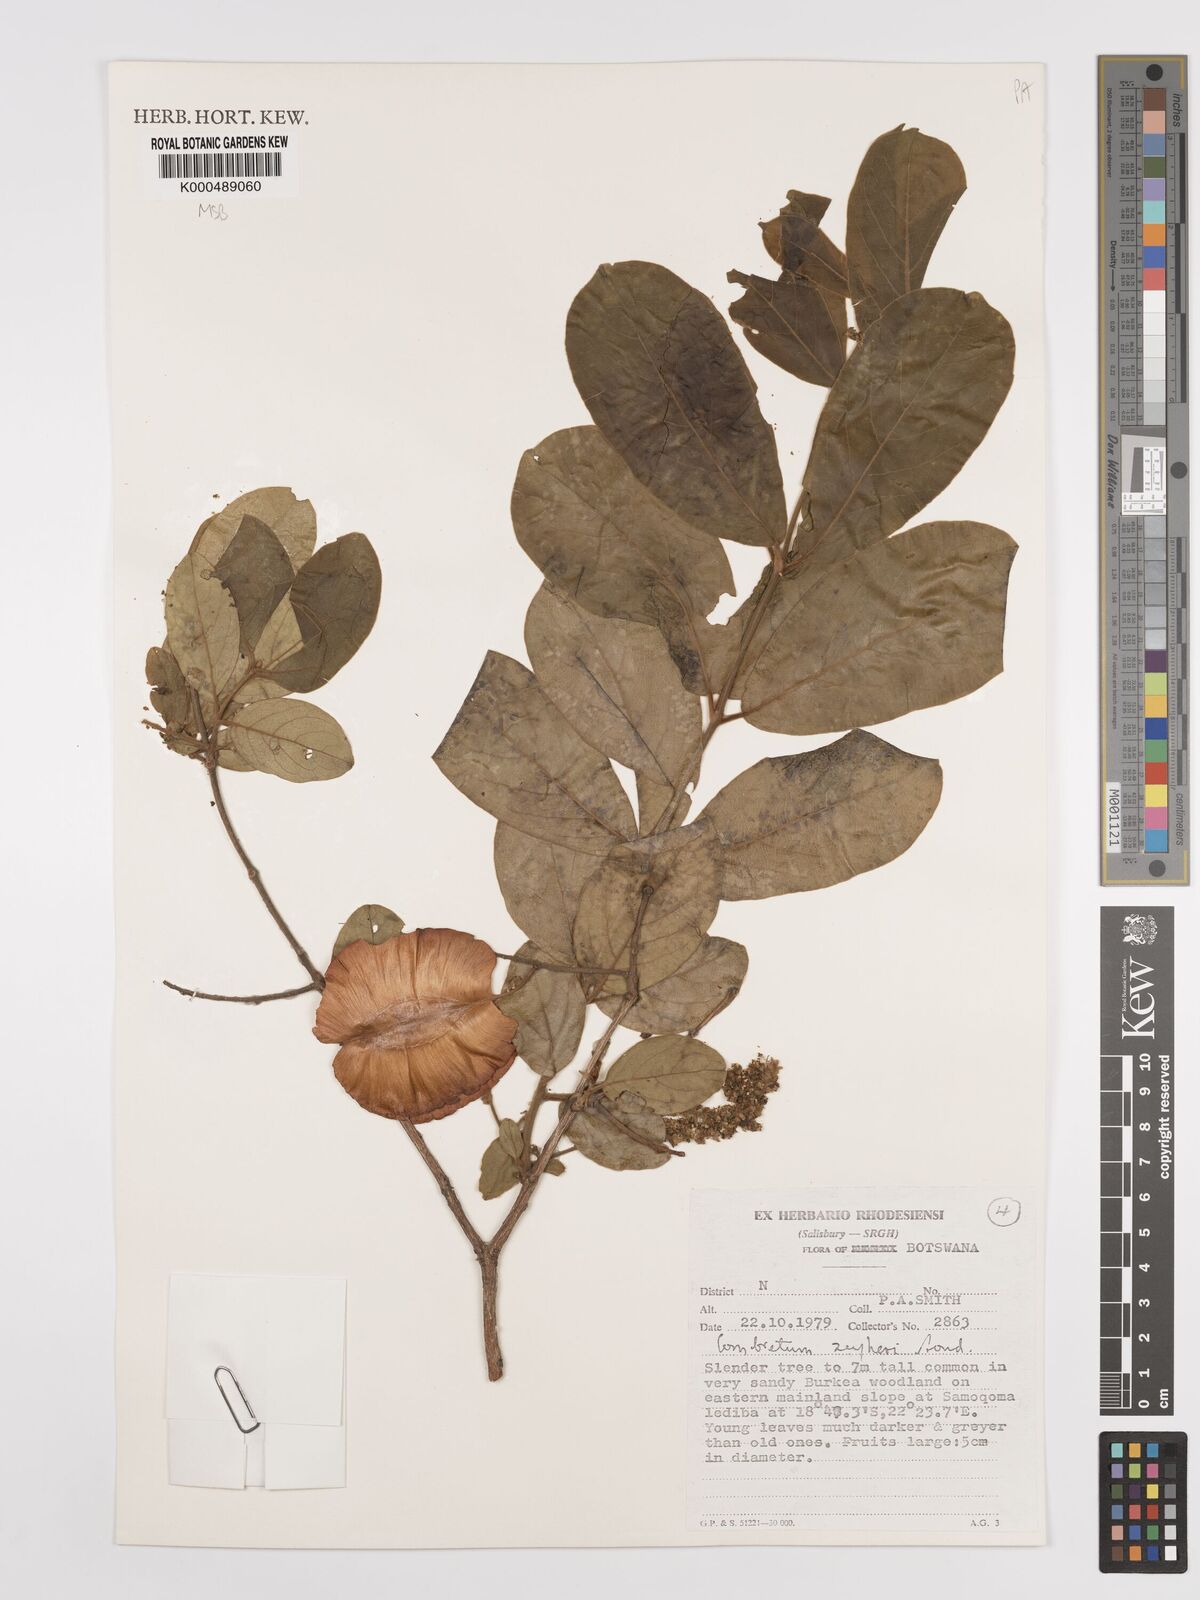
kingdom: Plantae
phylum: Tracheophyta
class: Magnoliopsida
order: Myrtales
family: Combretaceae
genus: Combretum
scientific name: Combretum zeyheri
